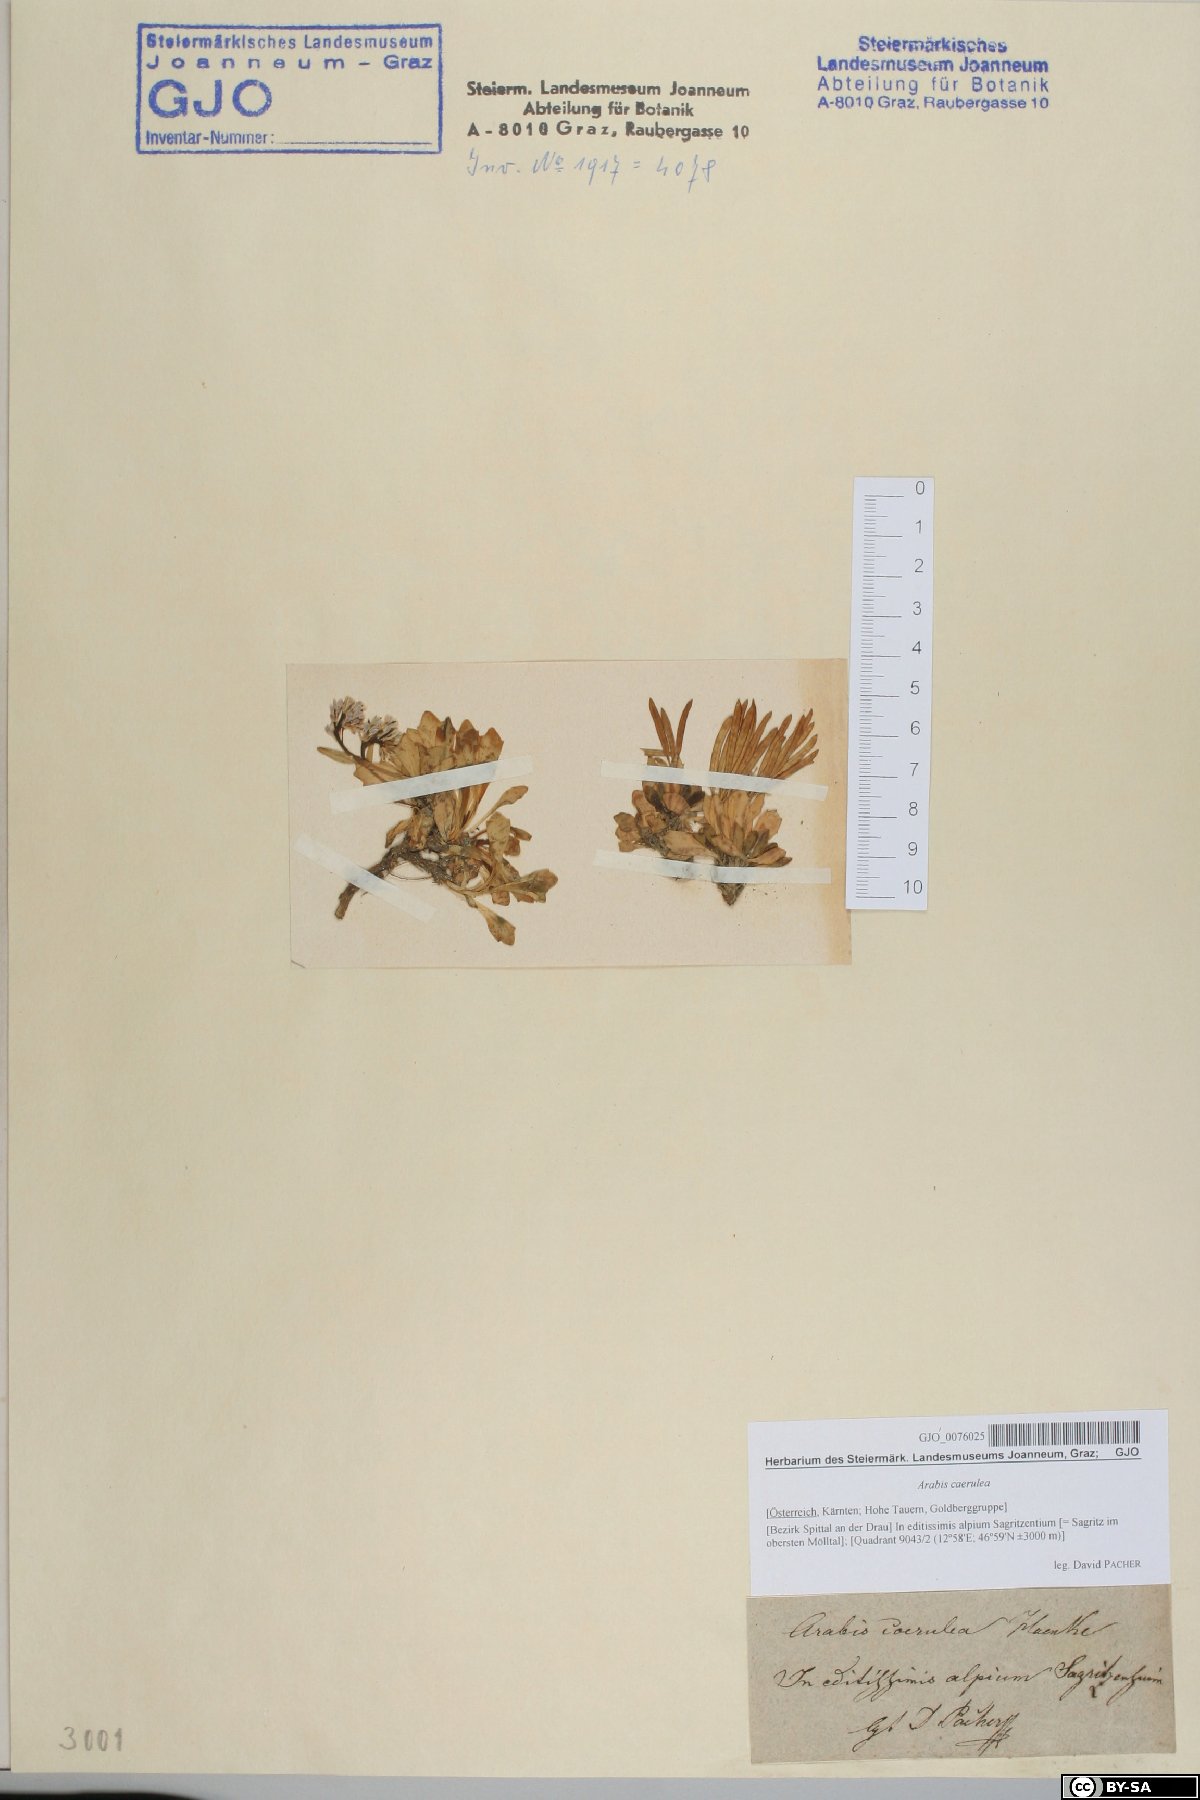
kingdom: Plantae
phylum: Tracheophyta
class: Magnoliopsida
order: Brassicales
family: Brassicaceae
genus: Arabis
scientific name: Arabis caerulea
